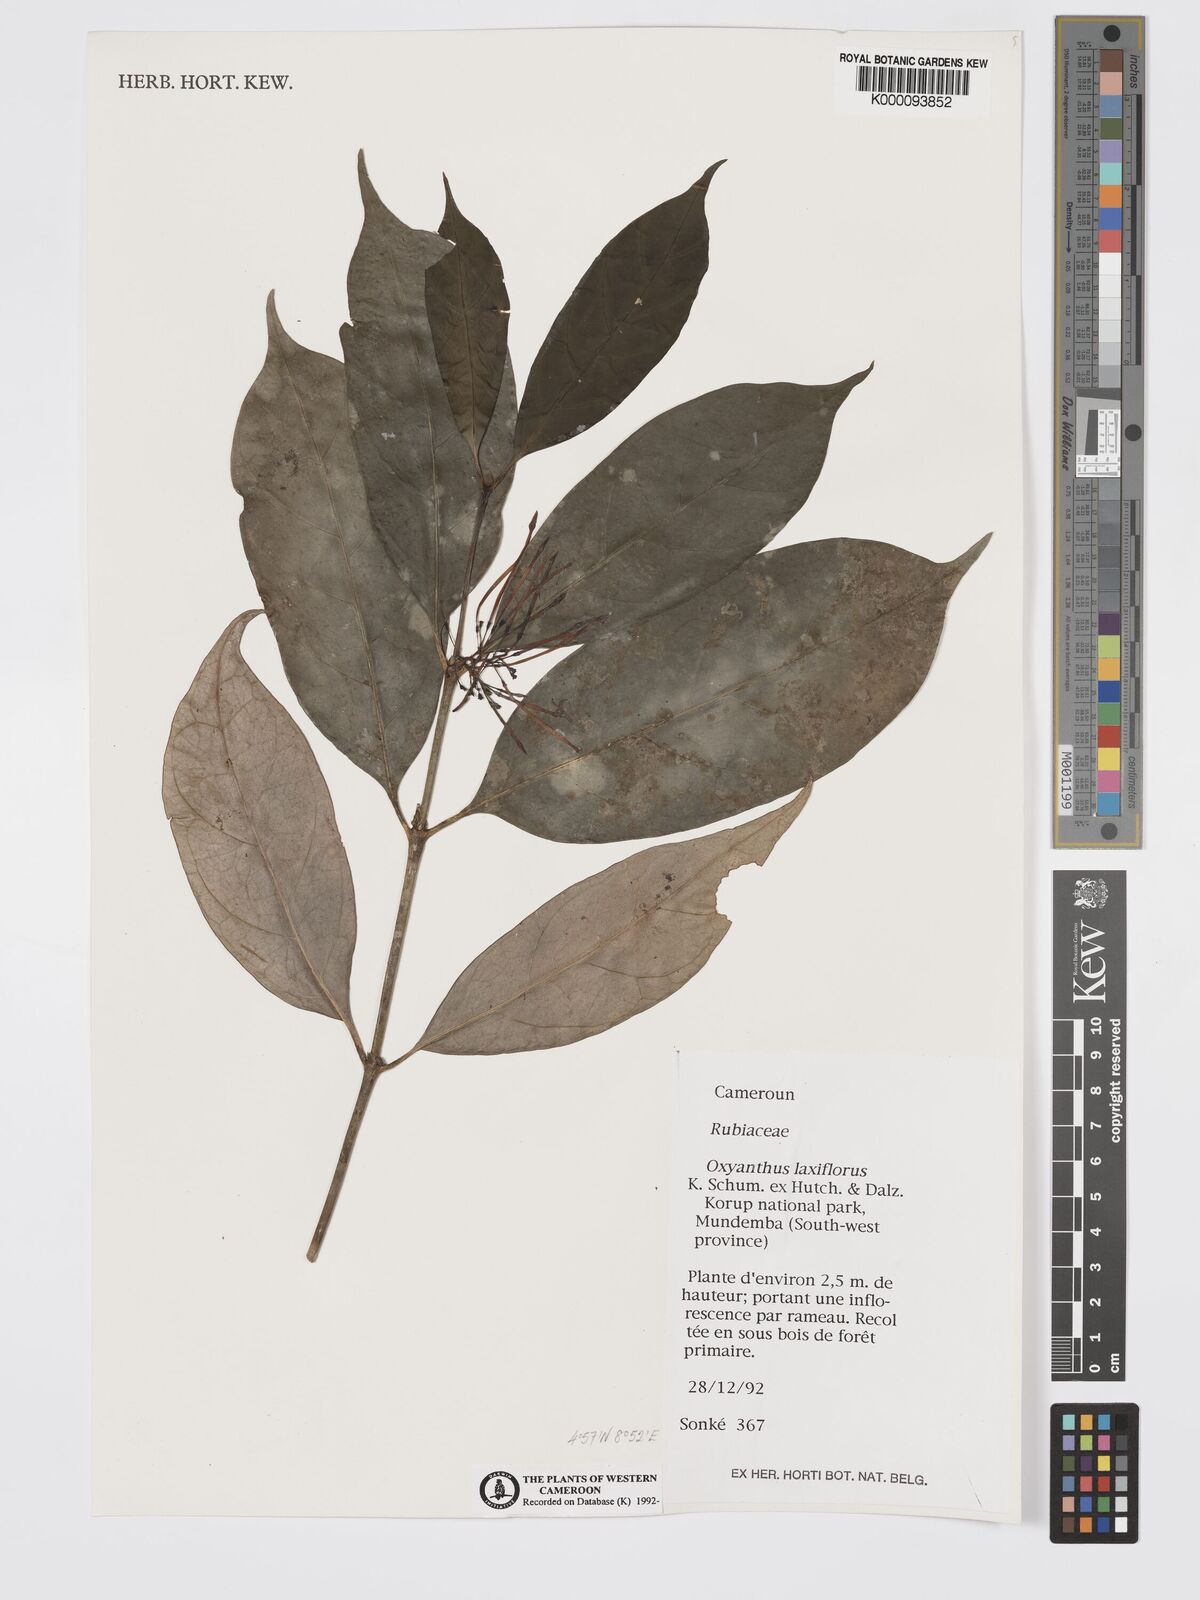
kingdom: Plantae
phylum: Tracheophyta
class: Magnoliopsida
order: Gentianales
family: Rubiaceae
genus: Oxyanthus
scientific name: Oxyanthus laxiflorus
